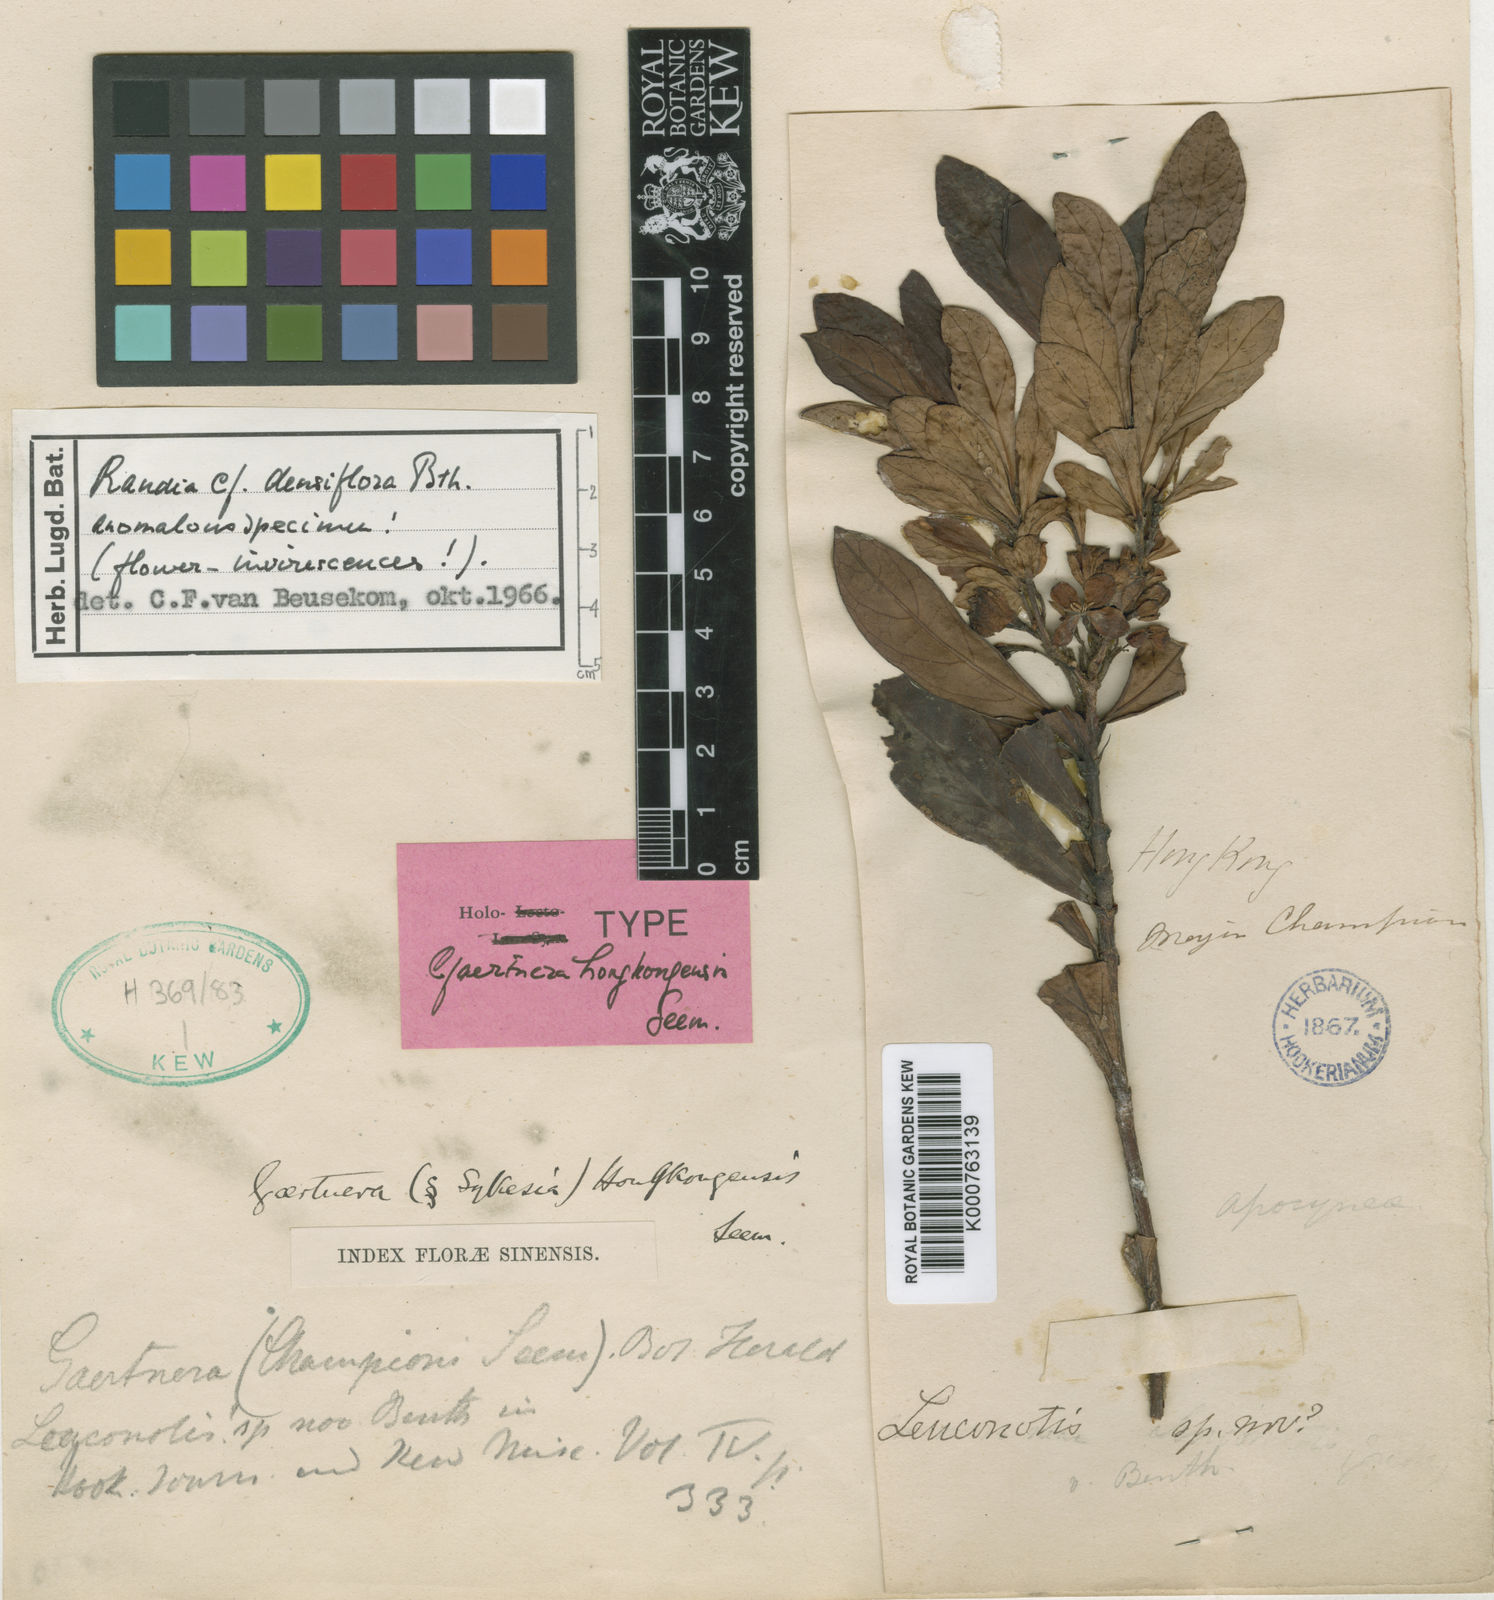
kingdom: Plantae
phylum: Tracheophyta
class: Magnoliopsida
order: Gentianales
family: Rubiaceae
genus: Ixora
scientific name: Ixora chinensis
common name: Chinese ixora
